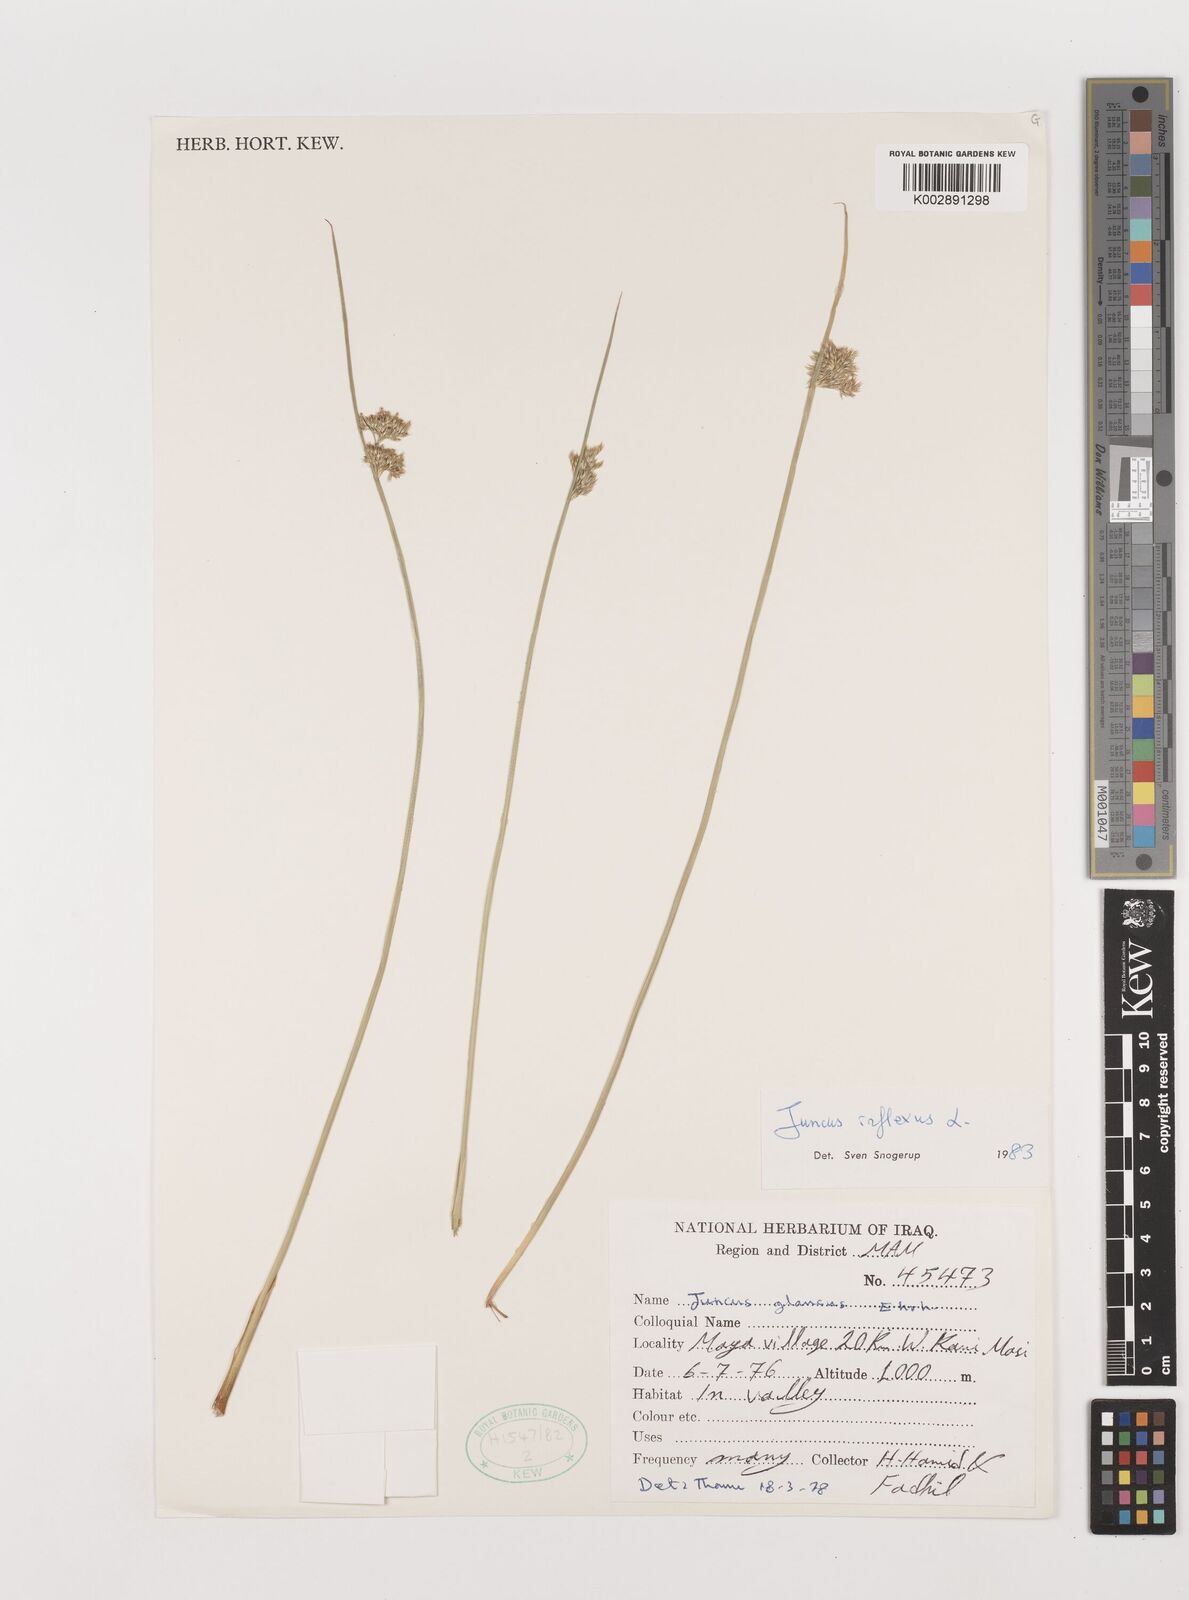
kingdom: Plantae
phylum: Tracheophyta
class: Liliopsida
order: Poales
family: Juncaceae
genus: Juncus
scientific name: Juncus inflexus
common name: Hard rush
